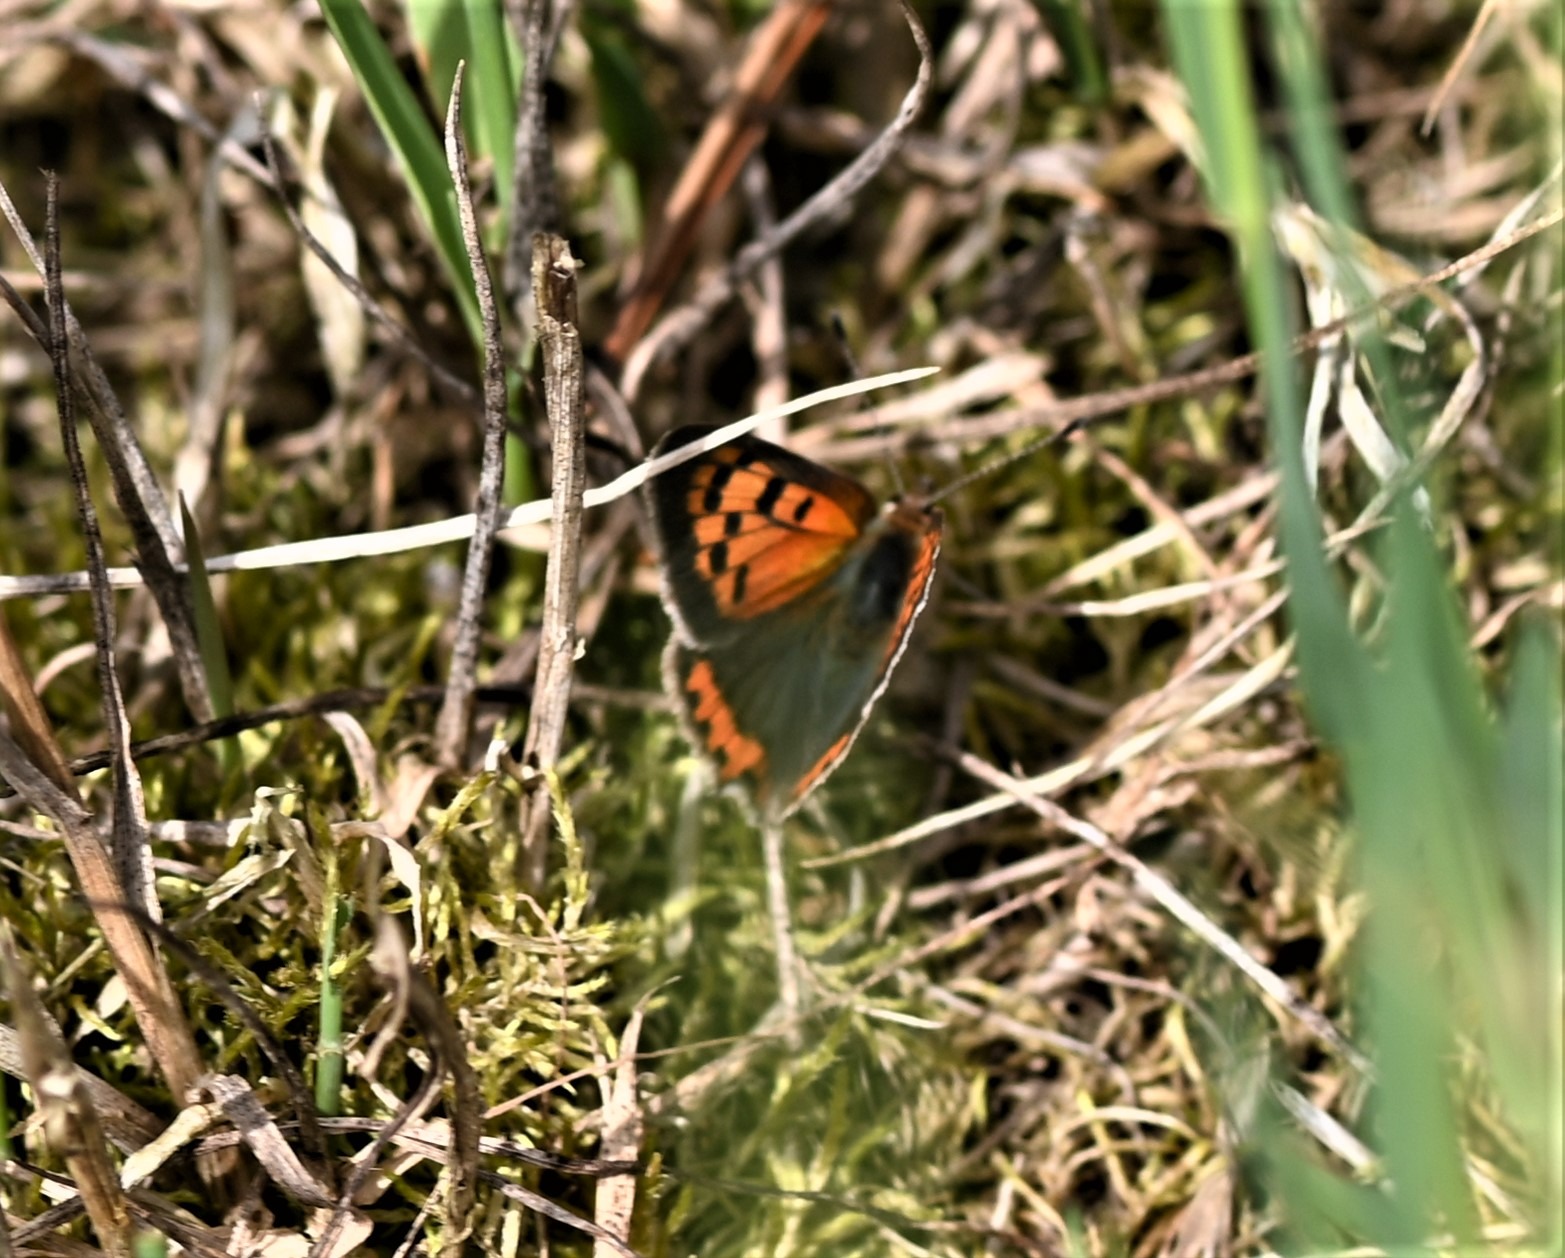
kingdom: Animalia
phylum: Arthropoda
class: Insecta
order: Lepidoptera
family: Lycaenidae
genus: Lycaena
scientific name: Lycaena phlaeas
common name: Lille ildfugl
